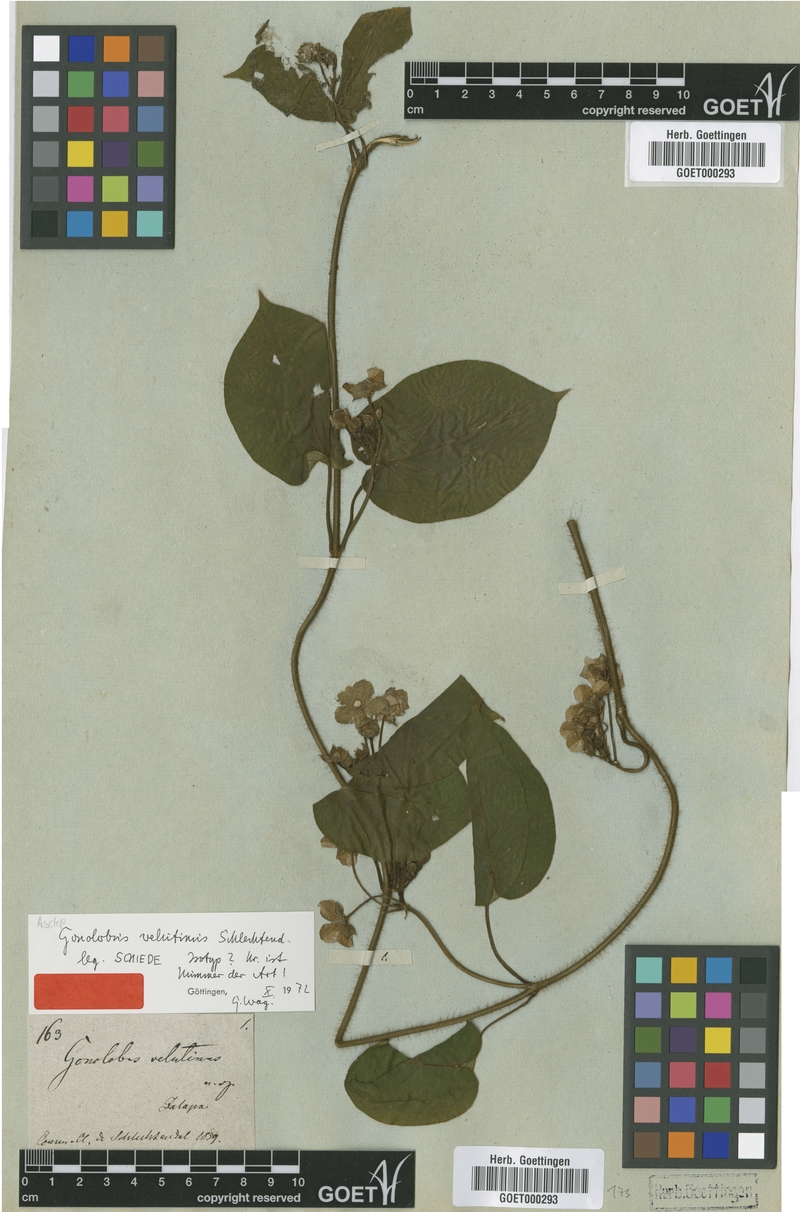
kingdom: Plantae
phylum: Tracheophyta
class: Magnoliopsida
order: Gentianales
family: Apocynaceae
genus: Matelea
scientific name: Matelea velutina
